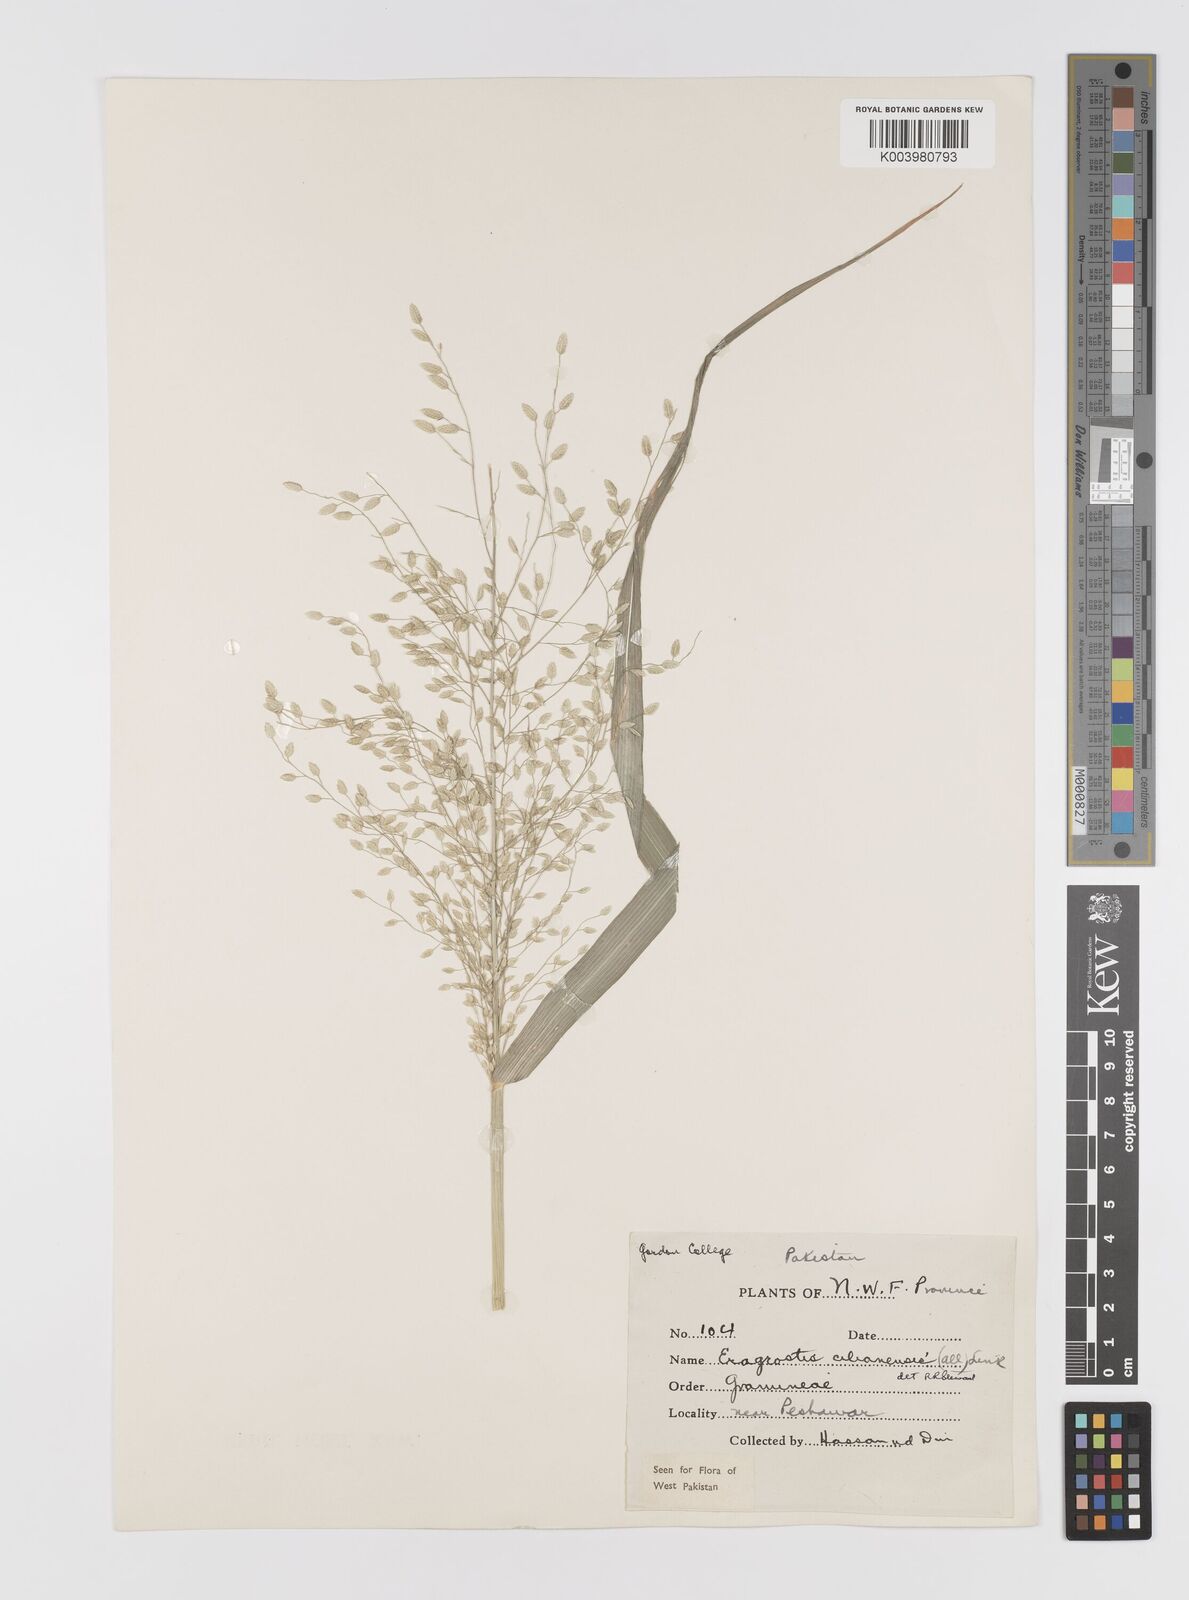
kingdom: Plantae
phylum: Tracheophyta
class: Liliopsida
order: Poales
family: Poaceae
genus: Eragrostis
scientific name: Eragrostis cilianensis
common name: Stinkgrass
